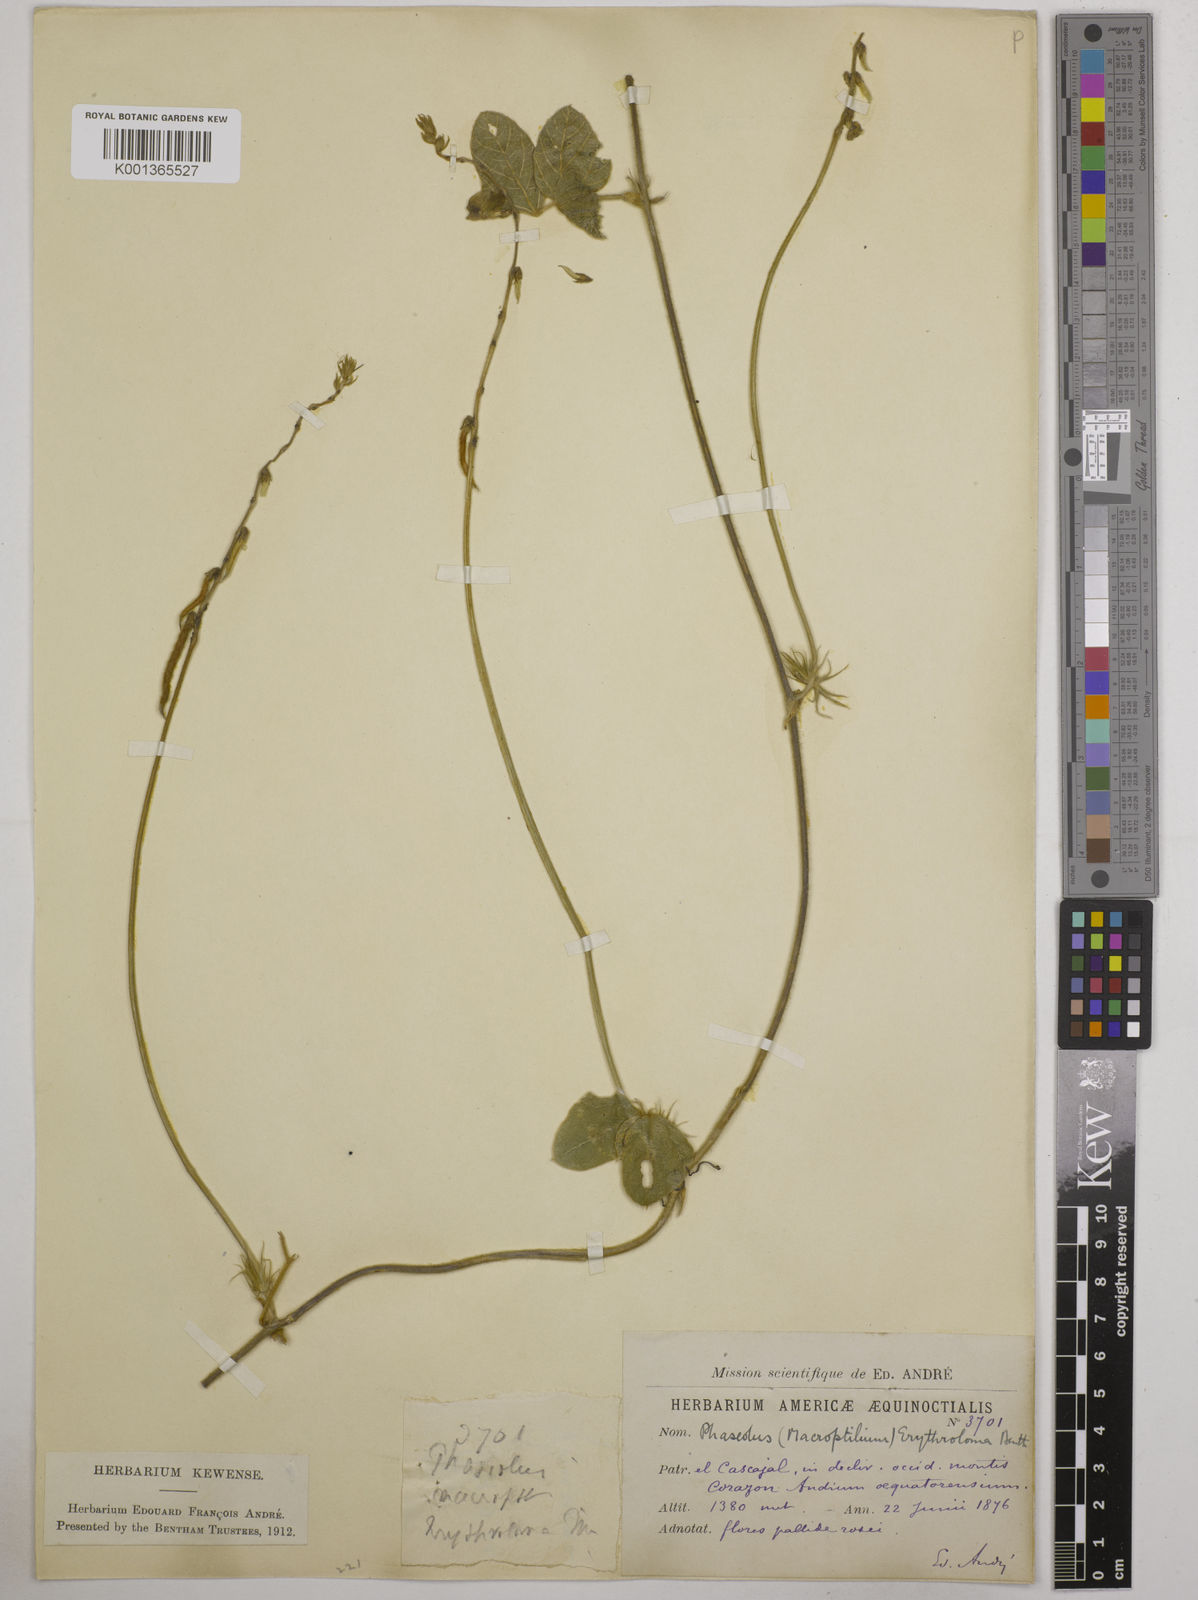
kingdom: Plantae
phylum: Tracheophyta
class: Magnoliopsida
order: Fabales
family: Fabaceae
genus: Macroptilium
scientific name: Macroptilium erythroloma
